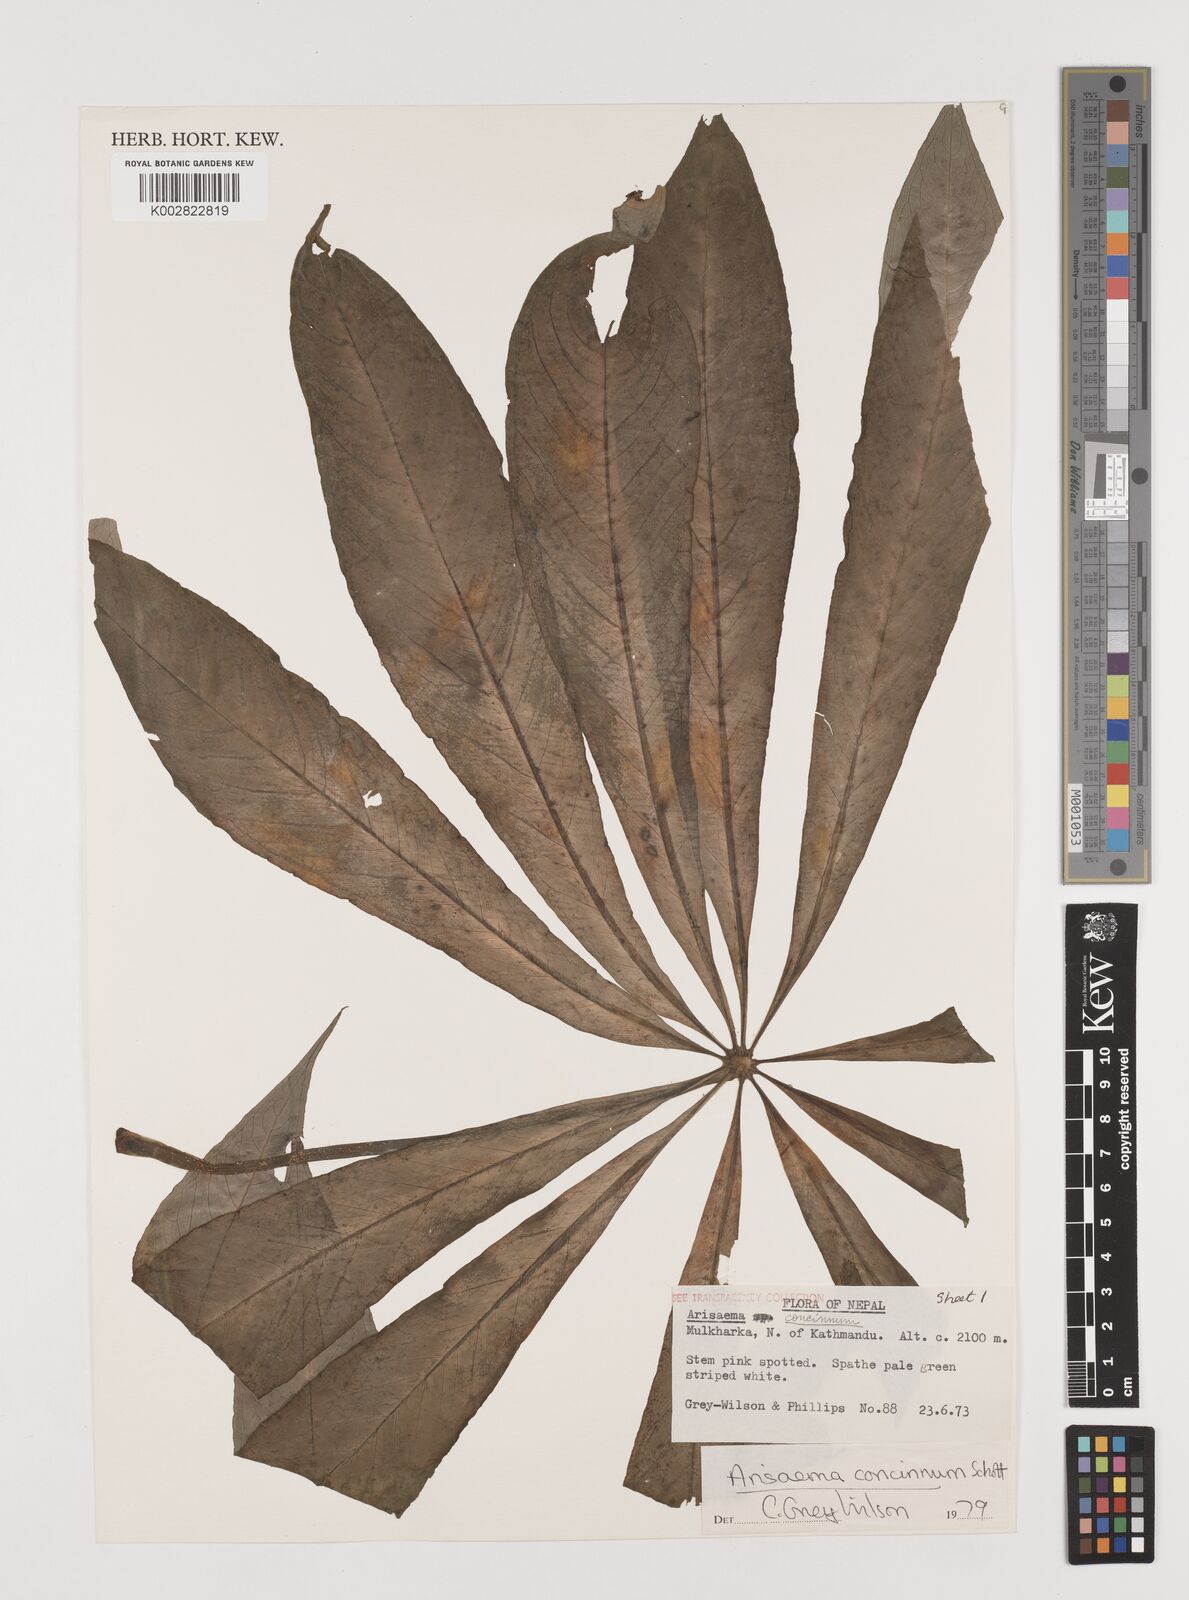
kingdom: Plantae
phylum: Tracheophyta
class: Liliopsida
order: Alismatales
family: Araceae
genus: Arisaema
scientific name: Arisaema concinnum
